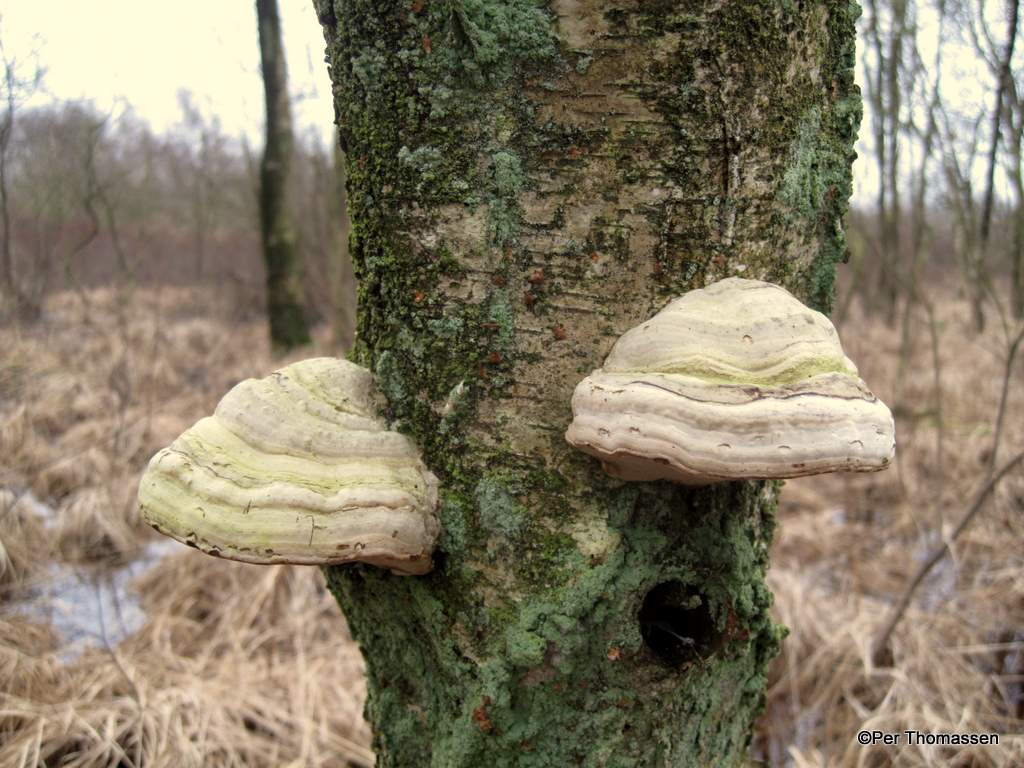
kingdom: Fungi
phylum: Basidiomycota
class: Agaricomycetes
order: Polyporales
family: Polyporaceae
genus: Fomes
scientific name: Fomes fomentarius
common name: tøndersvamp
